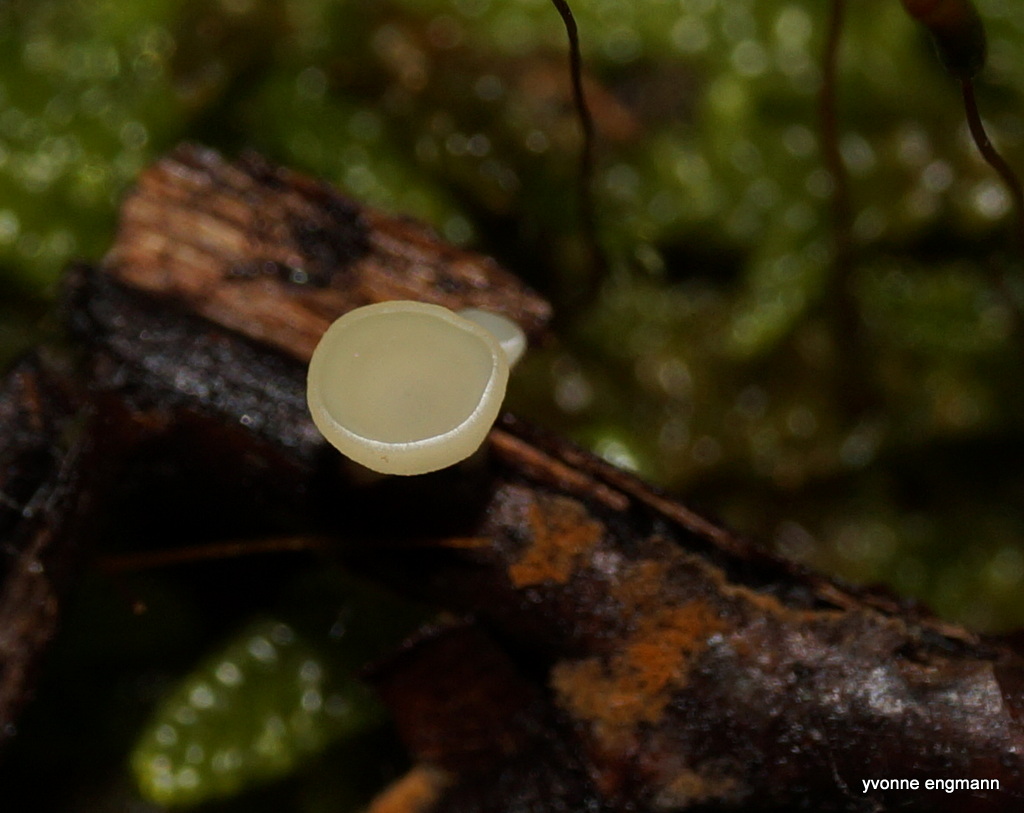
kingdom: Fungi
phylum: Ascomycota
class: Leotiomycetes
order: Helotiales
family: Helotiaceae
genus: Hymenoscyphus
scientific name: Hymenoscyphus serotinus
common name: krumsporet stilkskive
